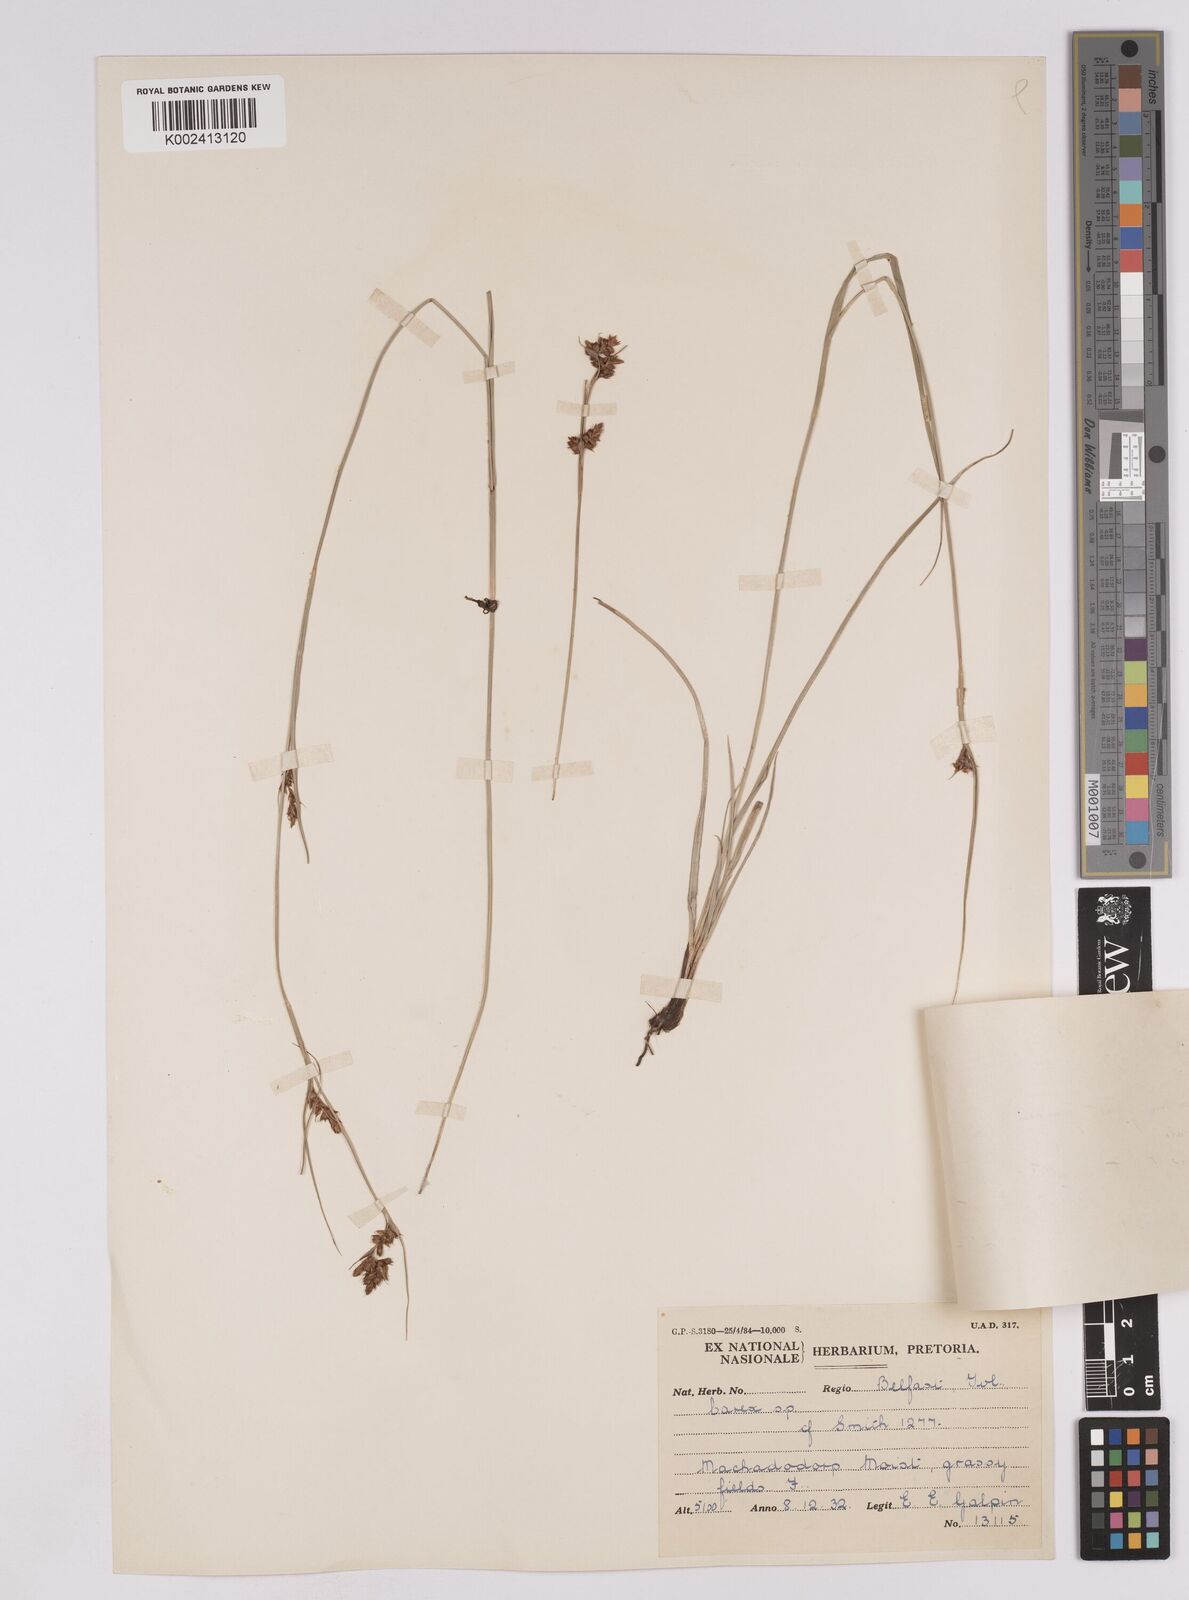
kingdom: Plantae
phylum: Tracheophyta
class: Liliopsida
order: Poales
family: Cyperaceae
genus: Carex
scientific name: Carex spartea
